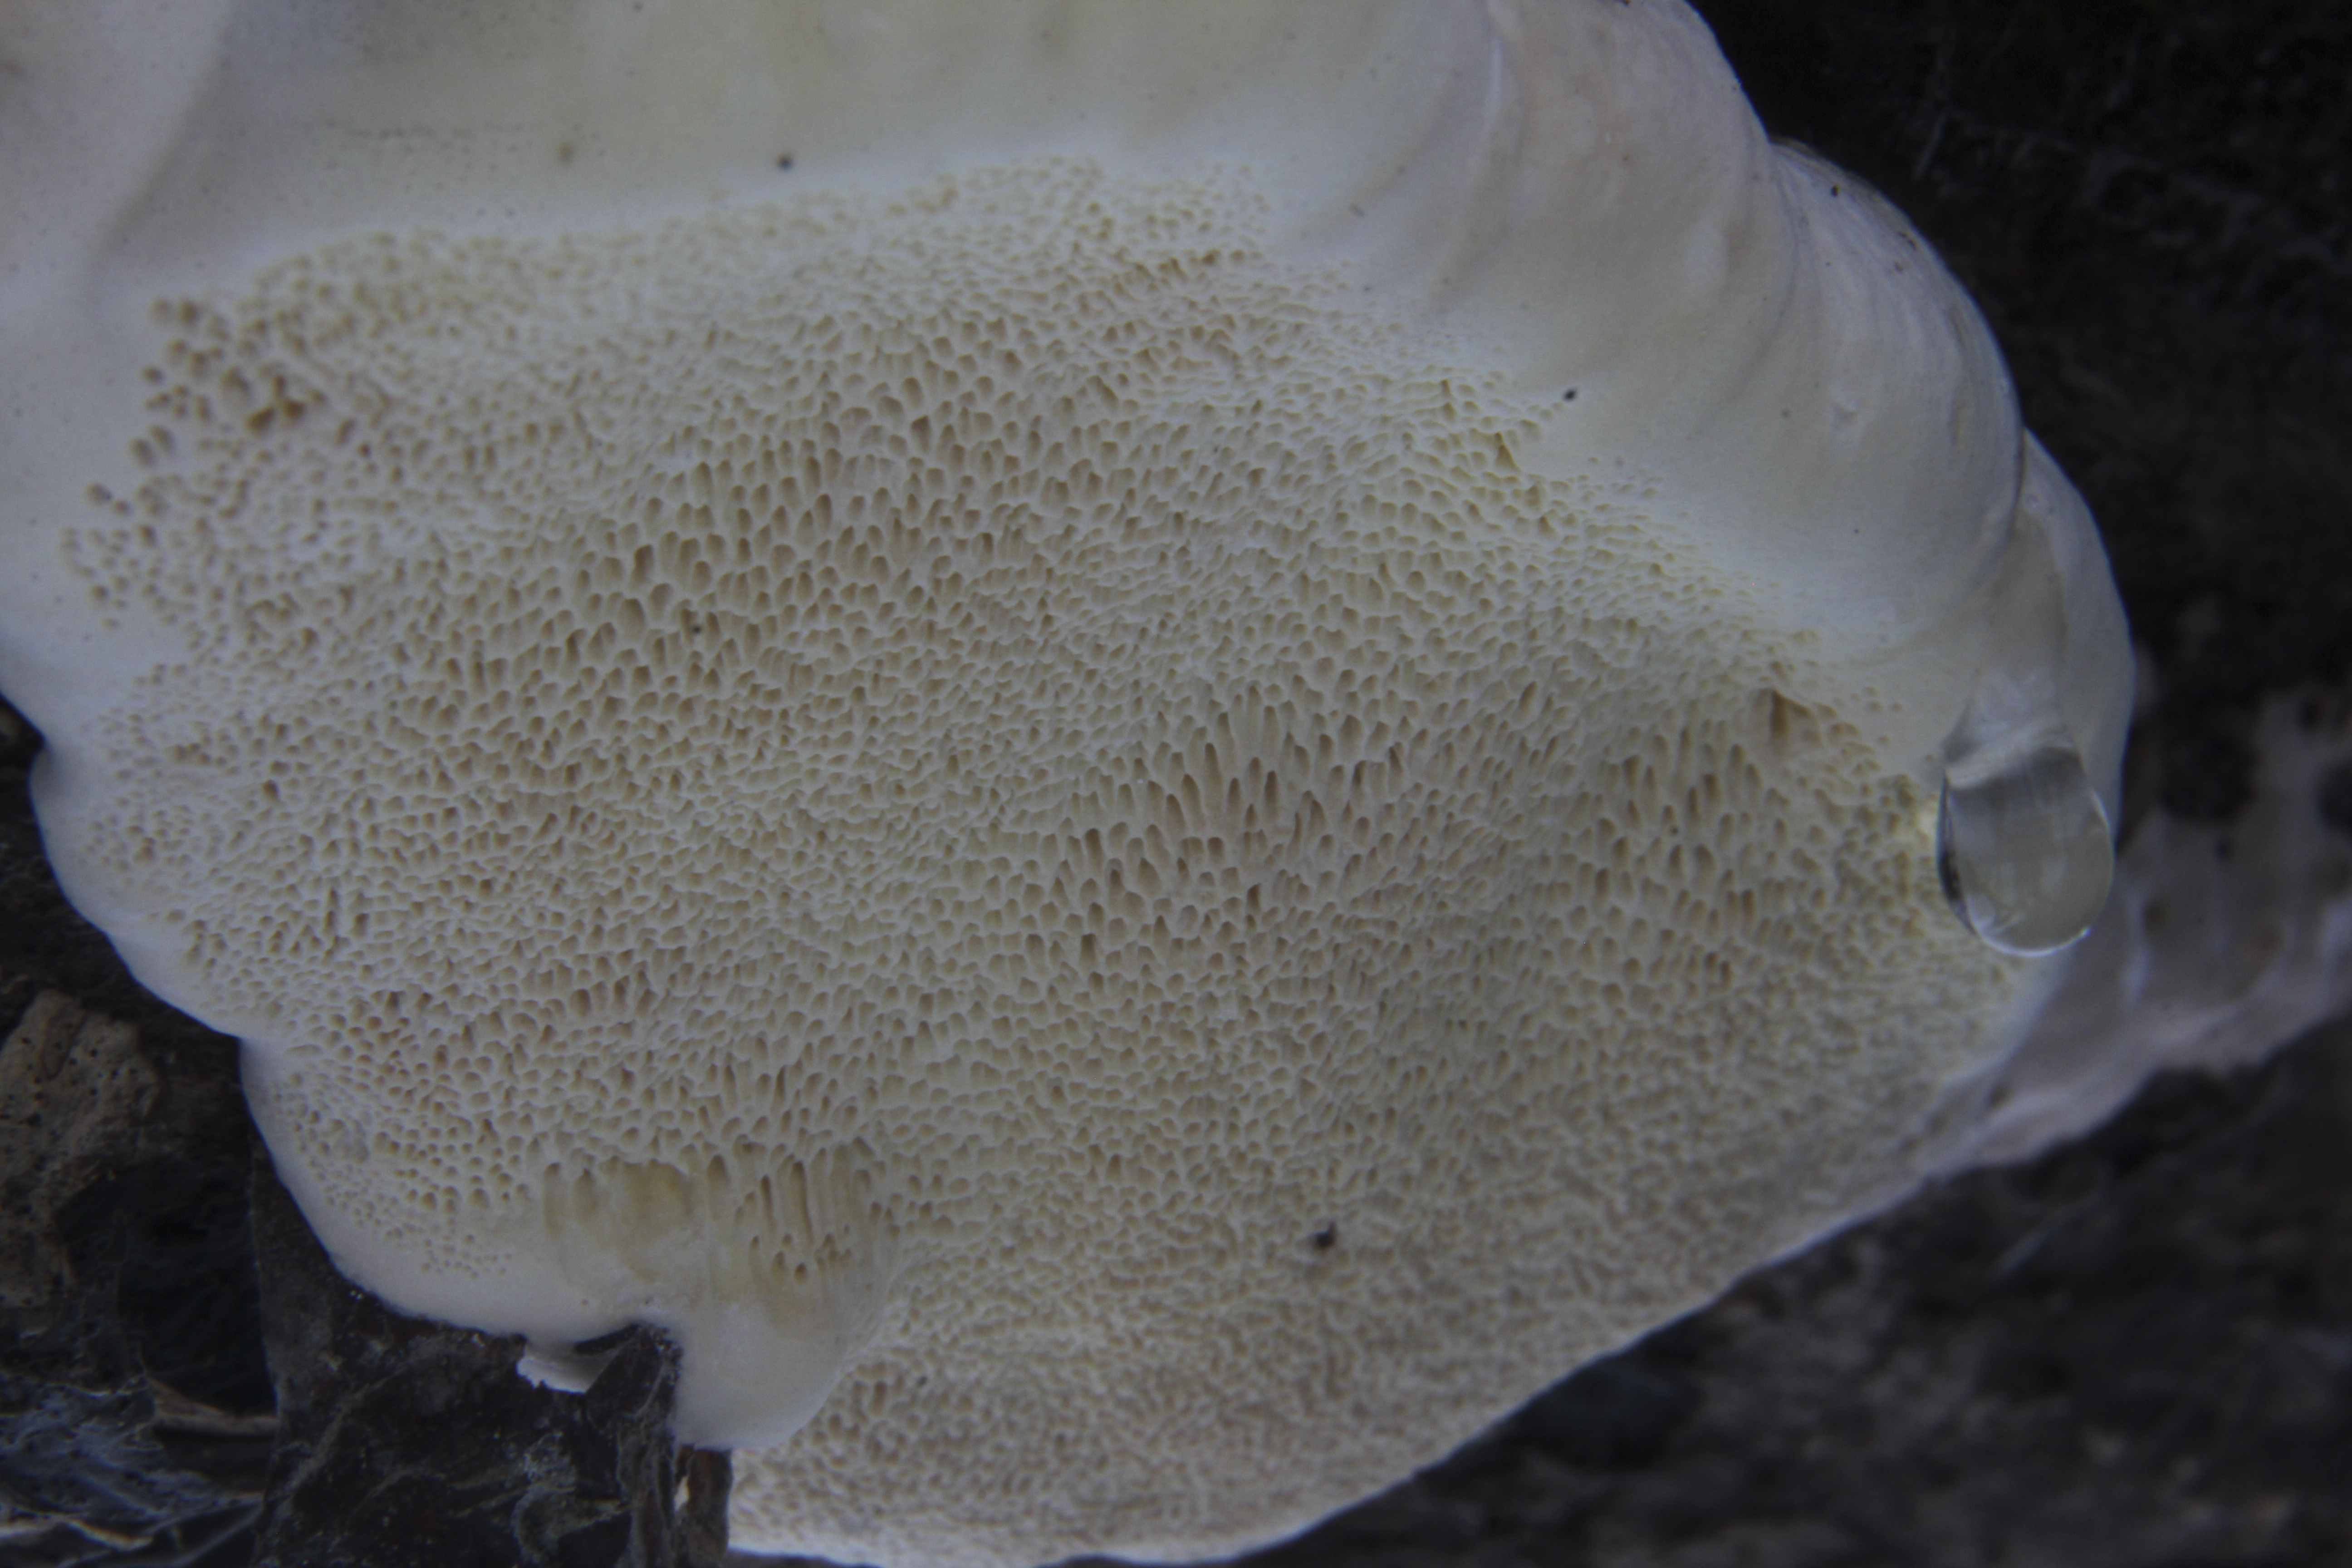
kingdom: Fungi
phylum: Basidiomycota
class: Agaricomycetes
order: Polyporales
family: Fomitopsidaceae
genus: Fomitopsis
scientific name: Fomitopsis pinicola
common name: Red-belted bracket
